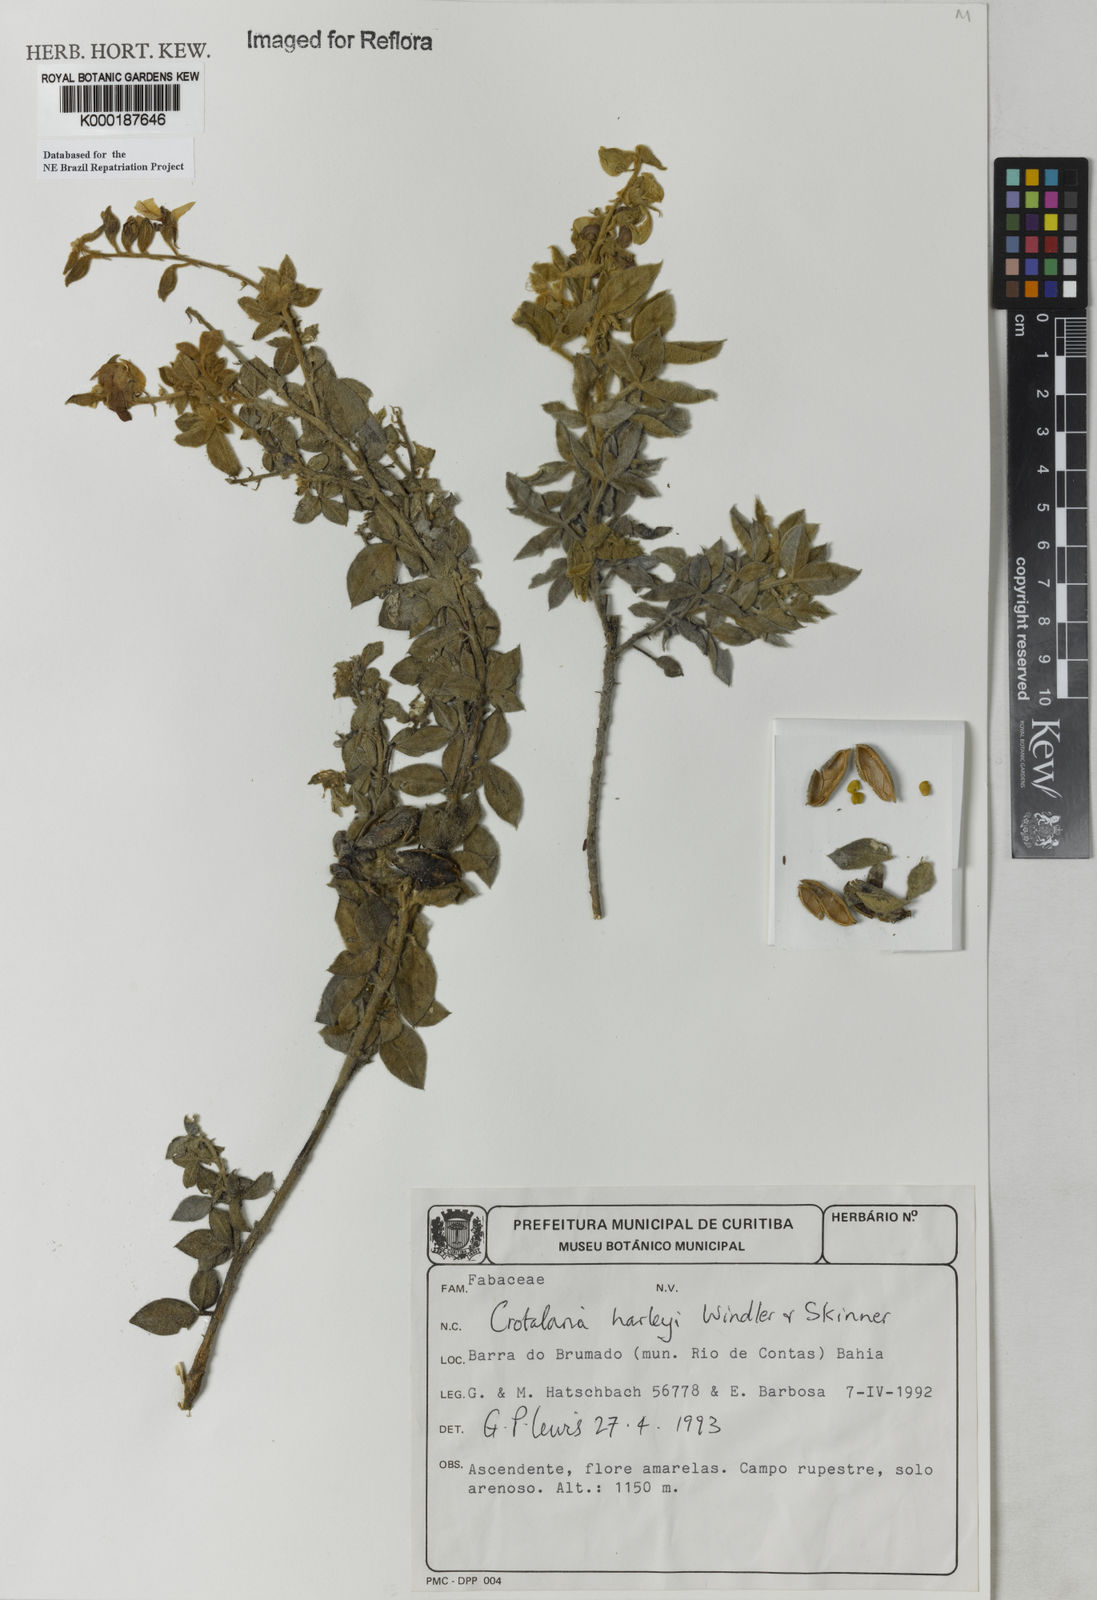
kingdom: Plantae
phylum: Tracheophyta
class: Magnoliopsida
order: Fabales
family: Fabaceae
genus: Crotalaria
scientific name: Crotalaria harleyi
